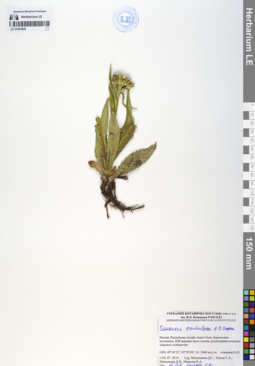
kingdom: Plantae
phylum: Tracheophyta
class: Magnoliopsida
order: Asterales
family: Asteraceae
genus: Saussurea
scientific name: Saussurea pseudoalpina
